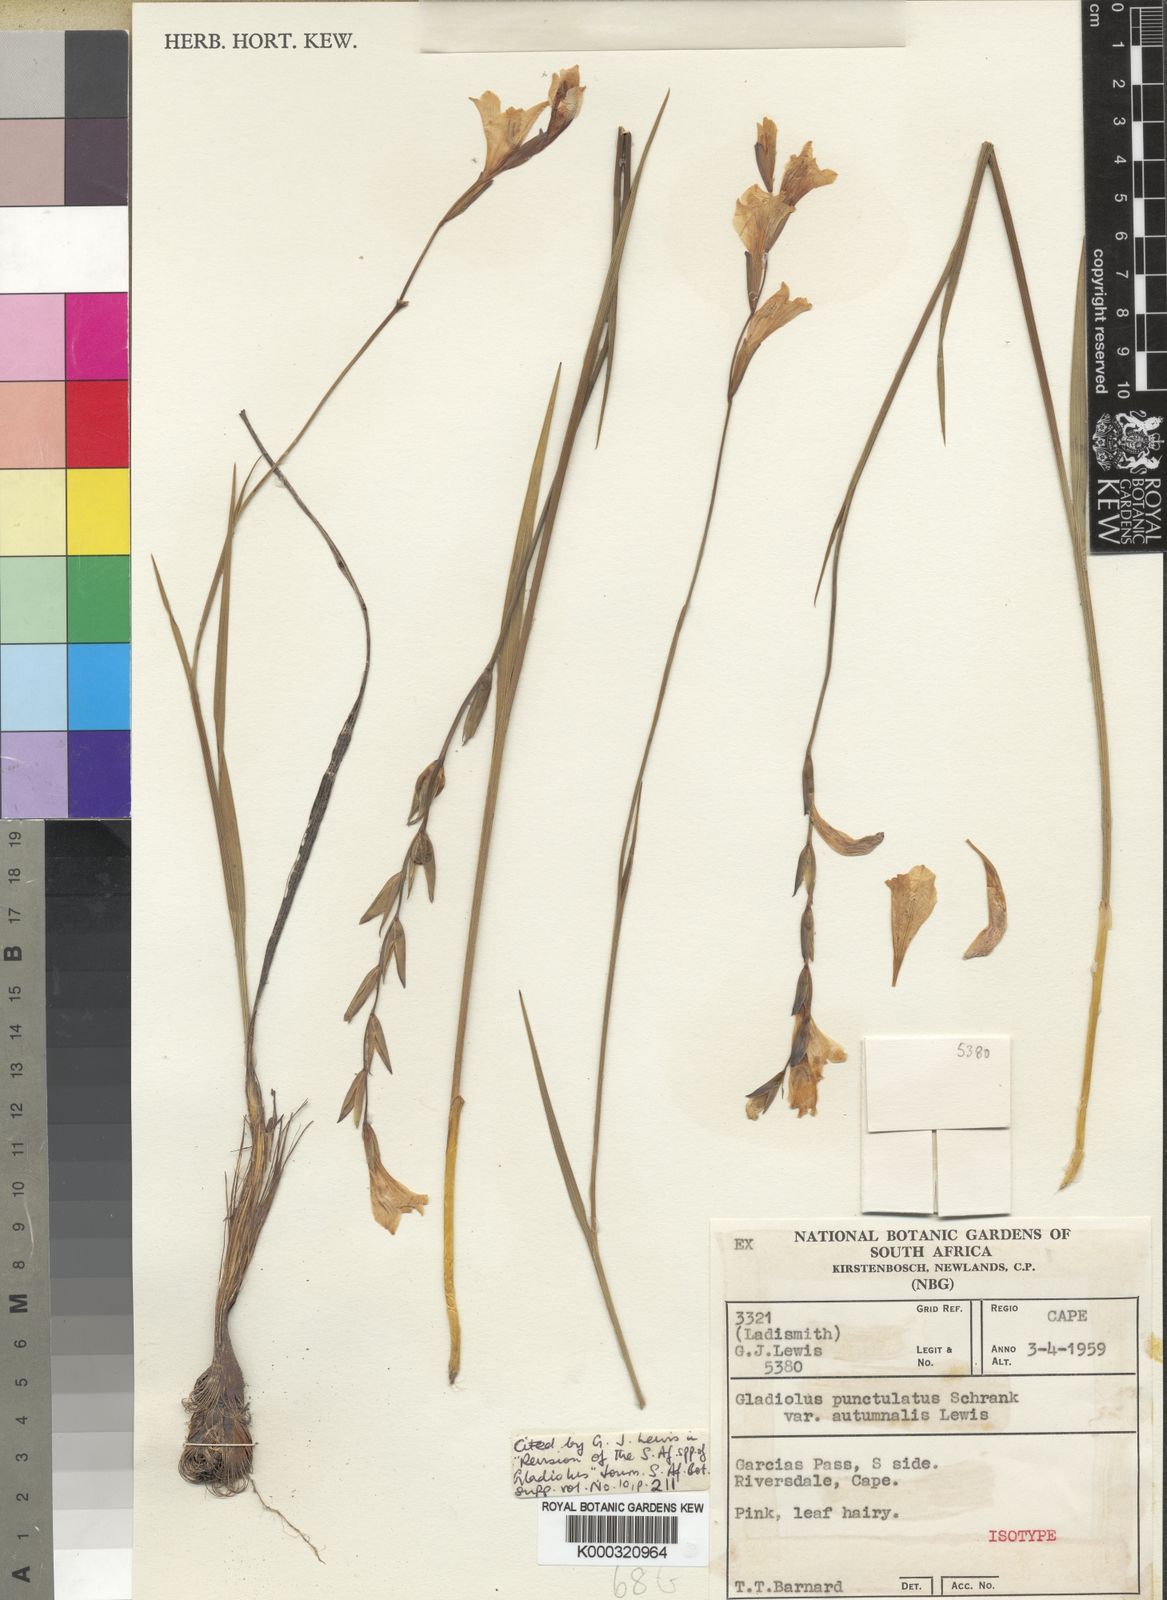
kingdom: Plantae
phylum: Tracheophyta
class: Liliopsida
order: Asparagales
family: Iridaceae
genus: Gladiolus
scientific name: Gladiolus hirsutus
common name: Small pink afrikaner
